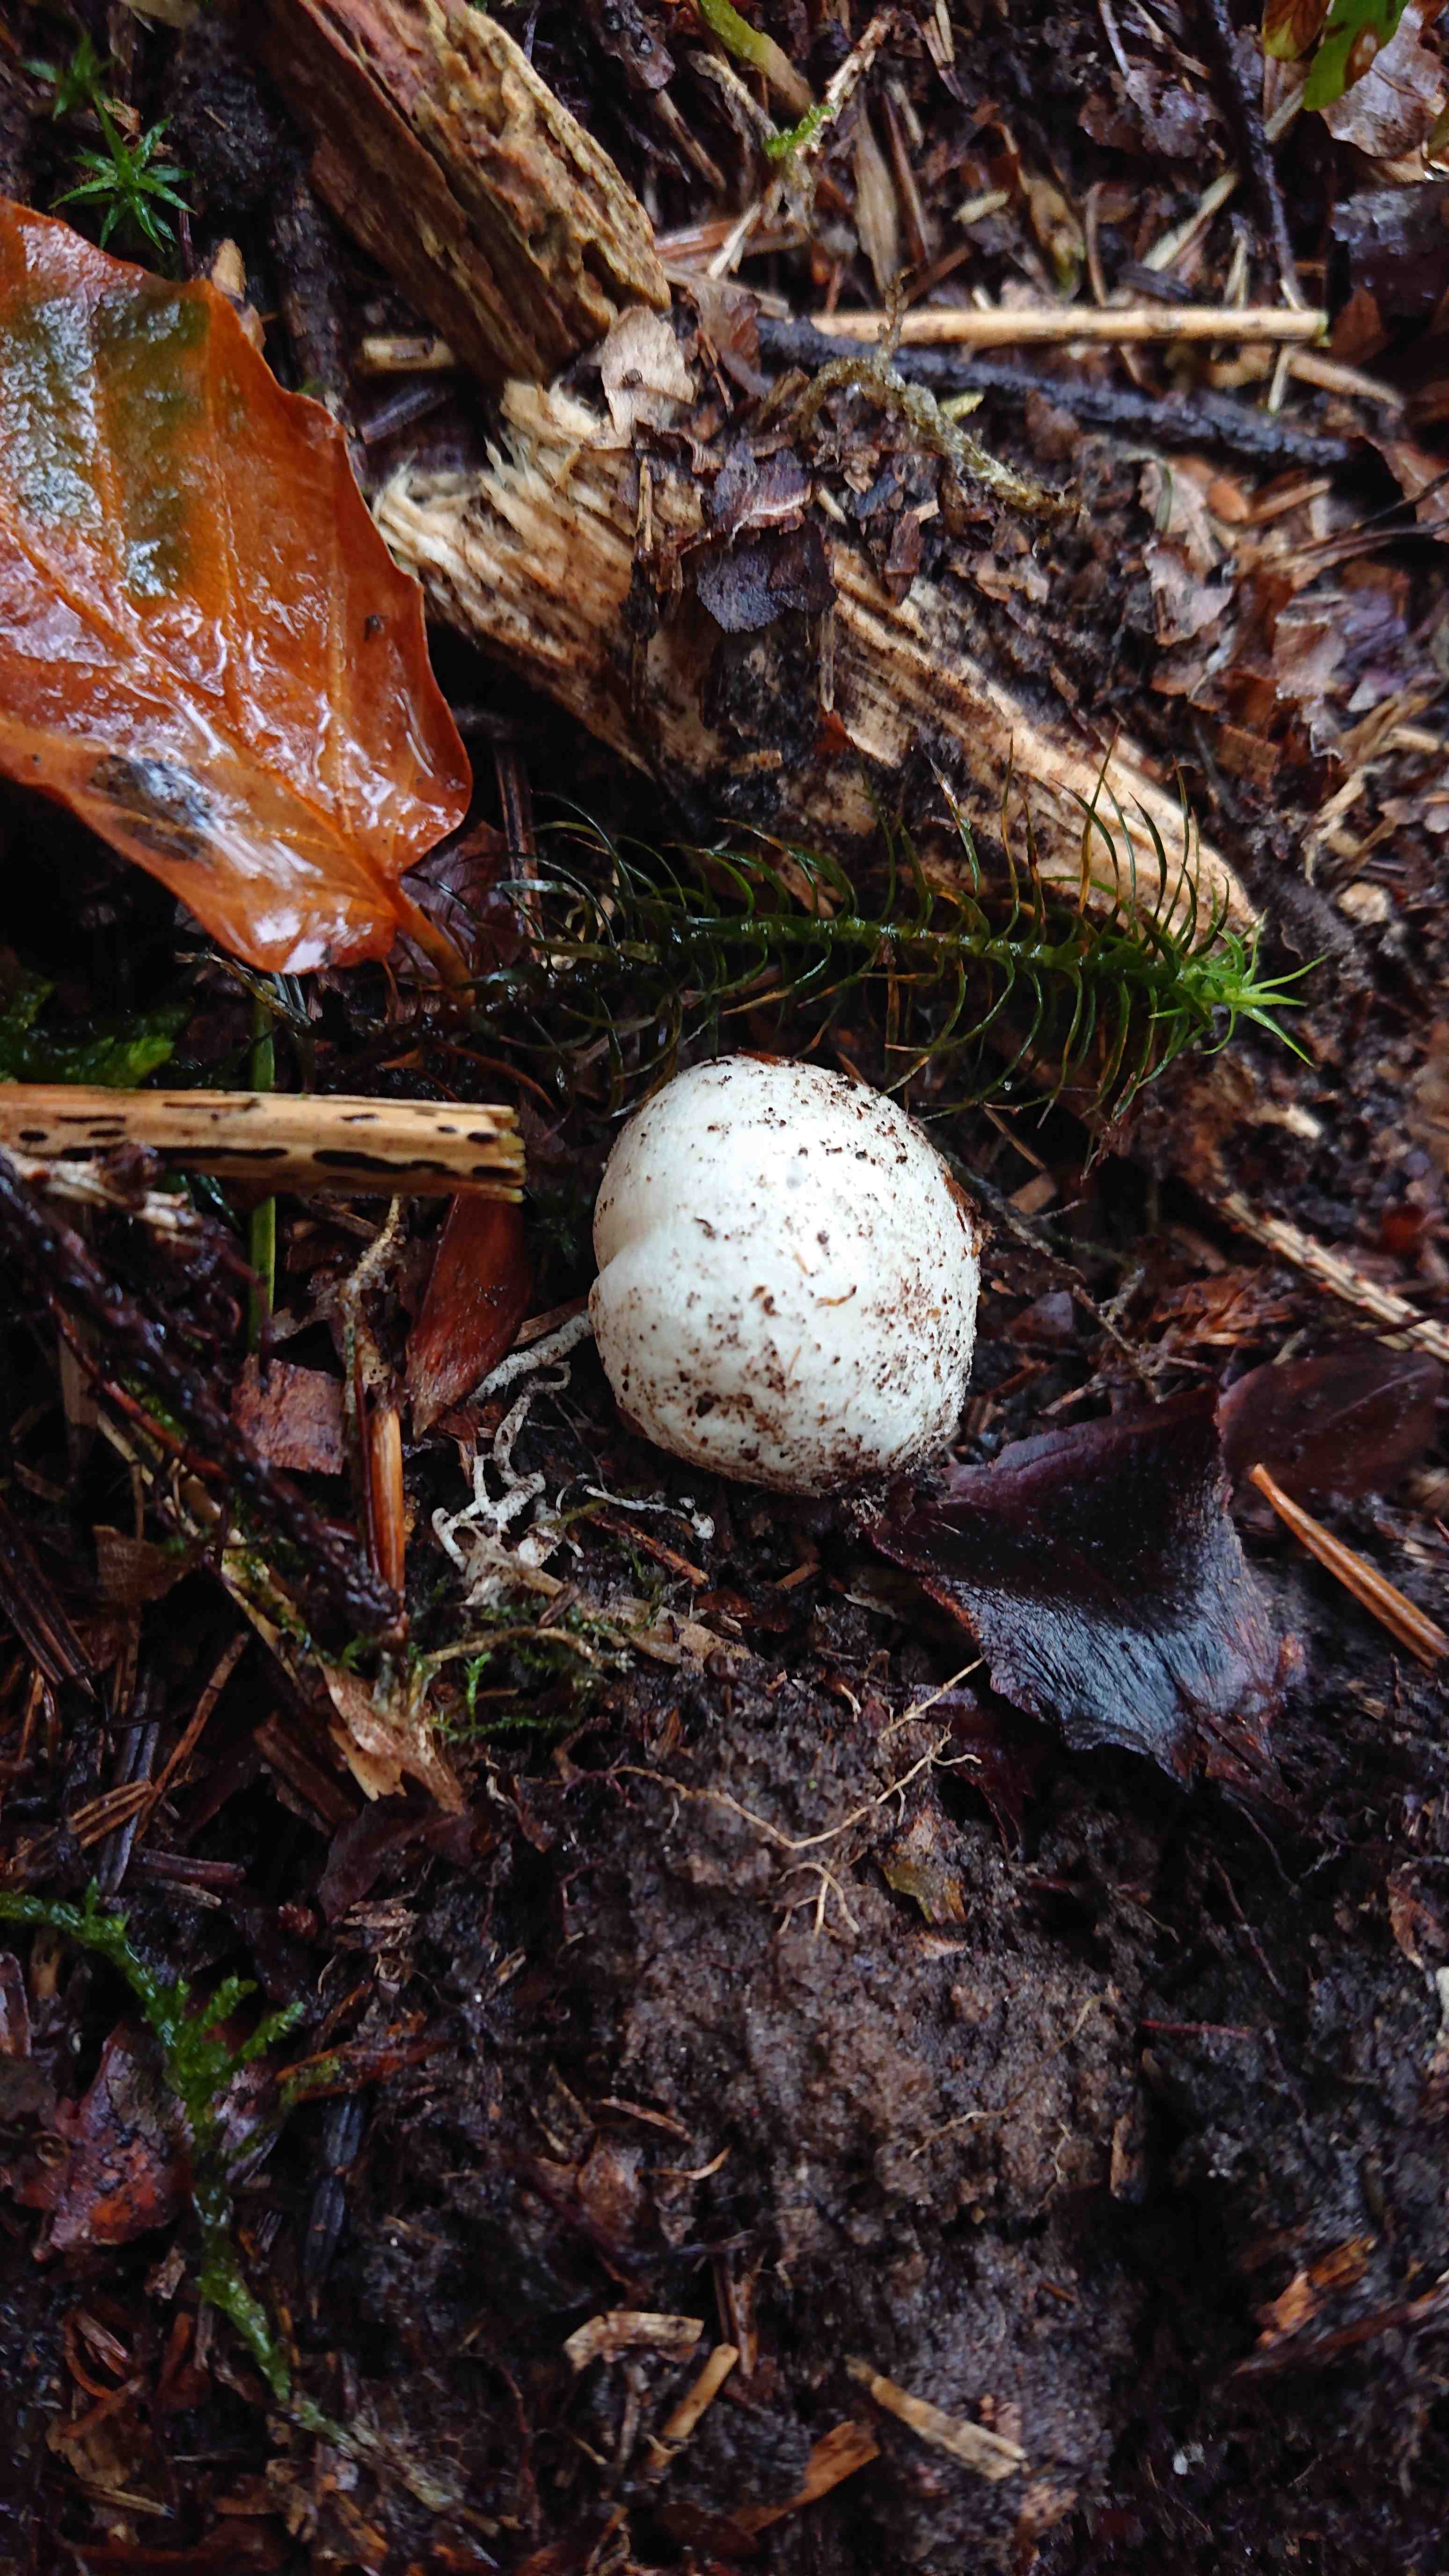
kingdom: Fungi
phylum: Basidiomycota
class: Agaricomycetes
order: Phallales
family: Phallaceae
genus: Phallus
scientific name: Phallus
